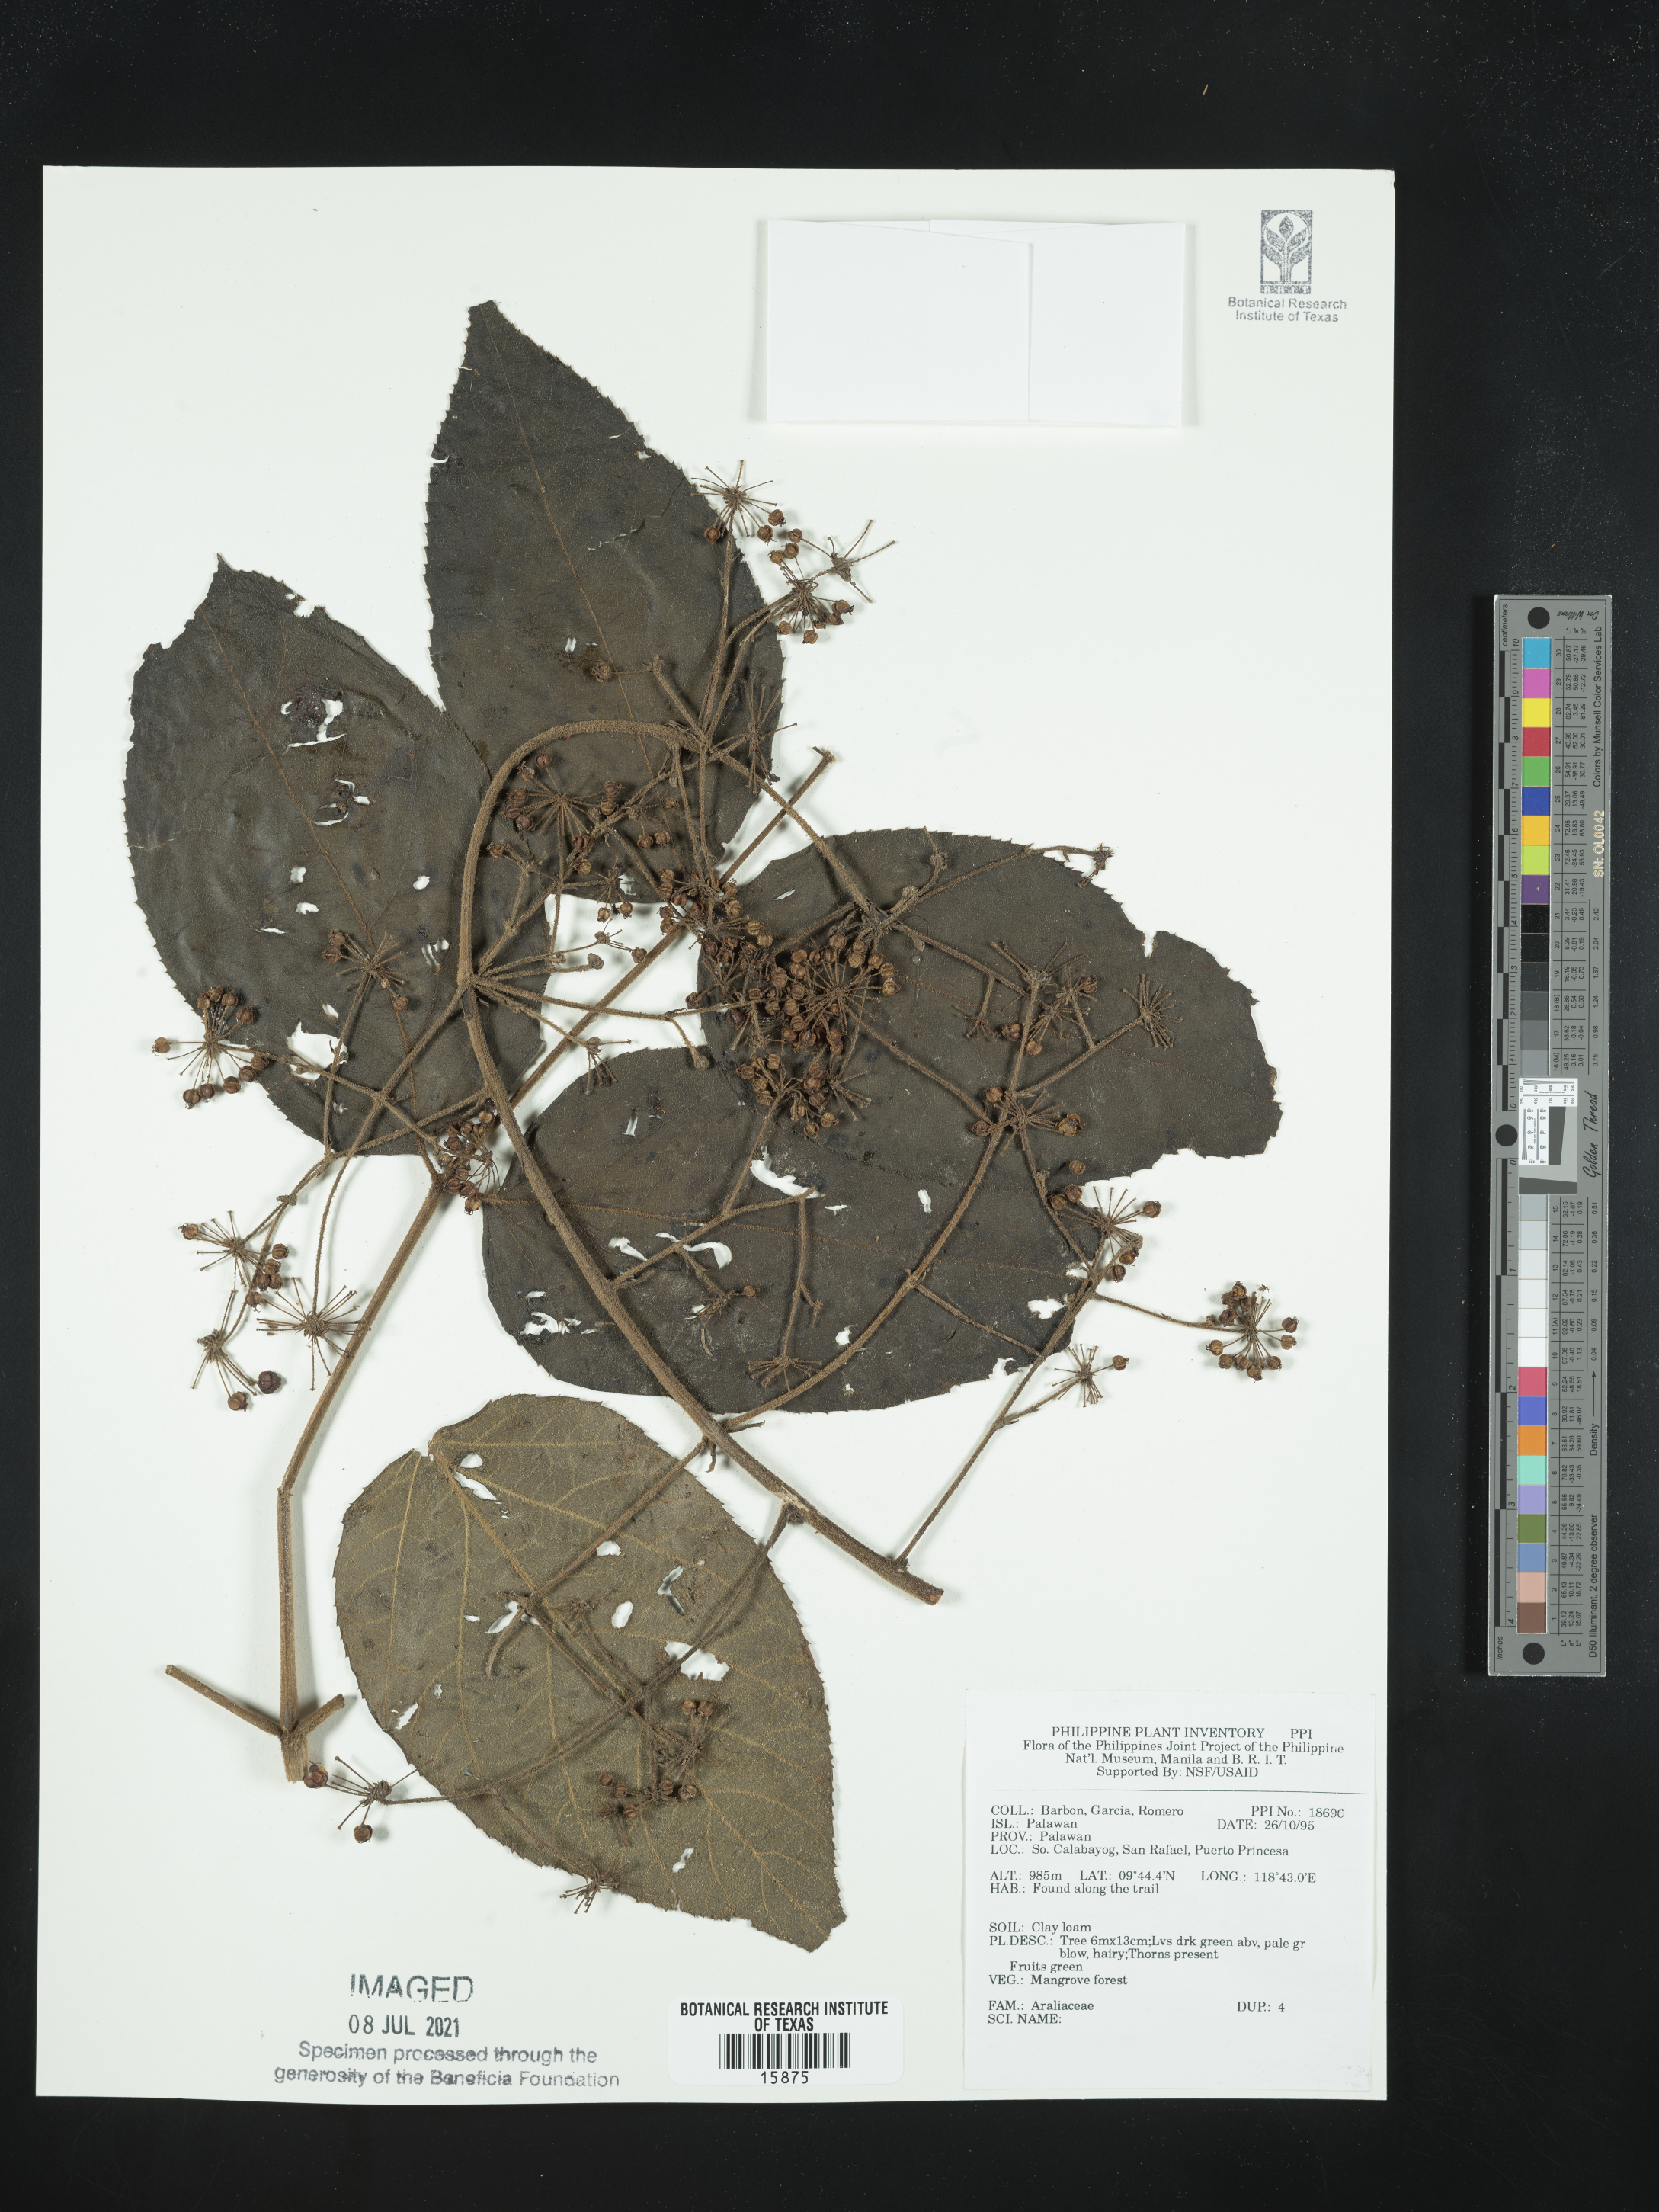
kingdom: Plantae
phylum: Tracheophyta
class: Magnoliopsida
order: Apiales
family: Araliaceae
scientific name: Araliaceae
